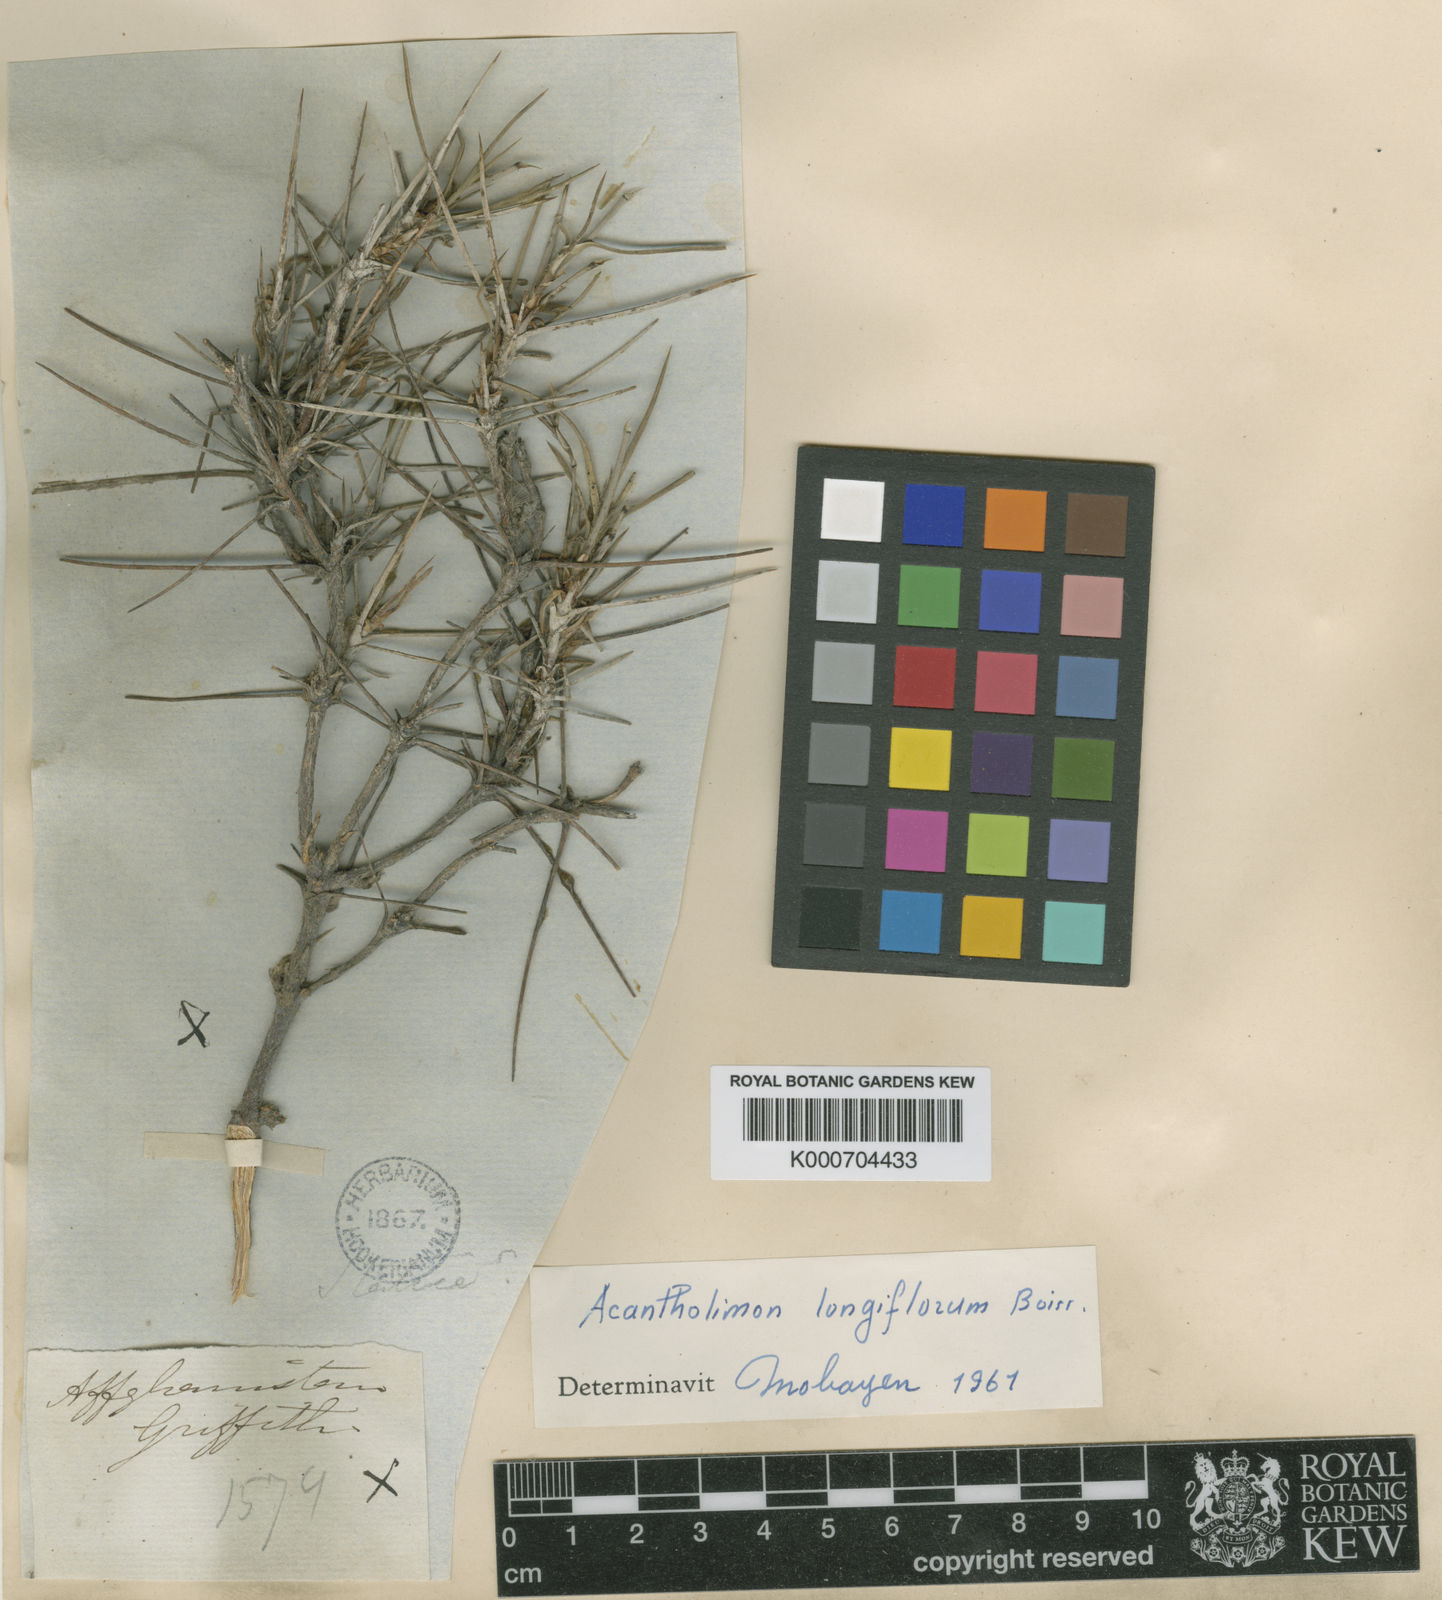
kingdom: Plantae
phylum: Tracheophyta
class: Magnoliopsida
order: Caryophyllales
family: Plumbaginaceae
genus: Acantholimon
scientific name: Acantholimon longiflorum
